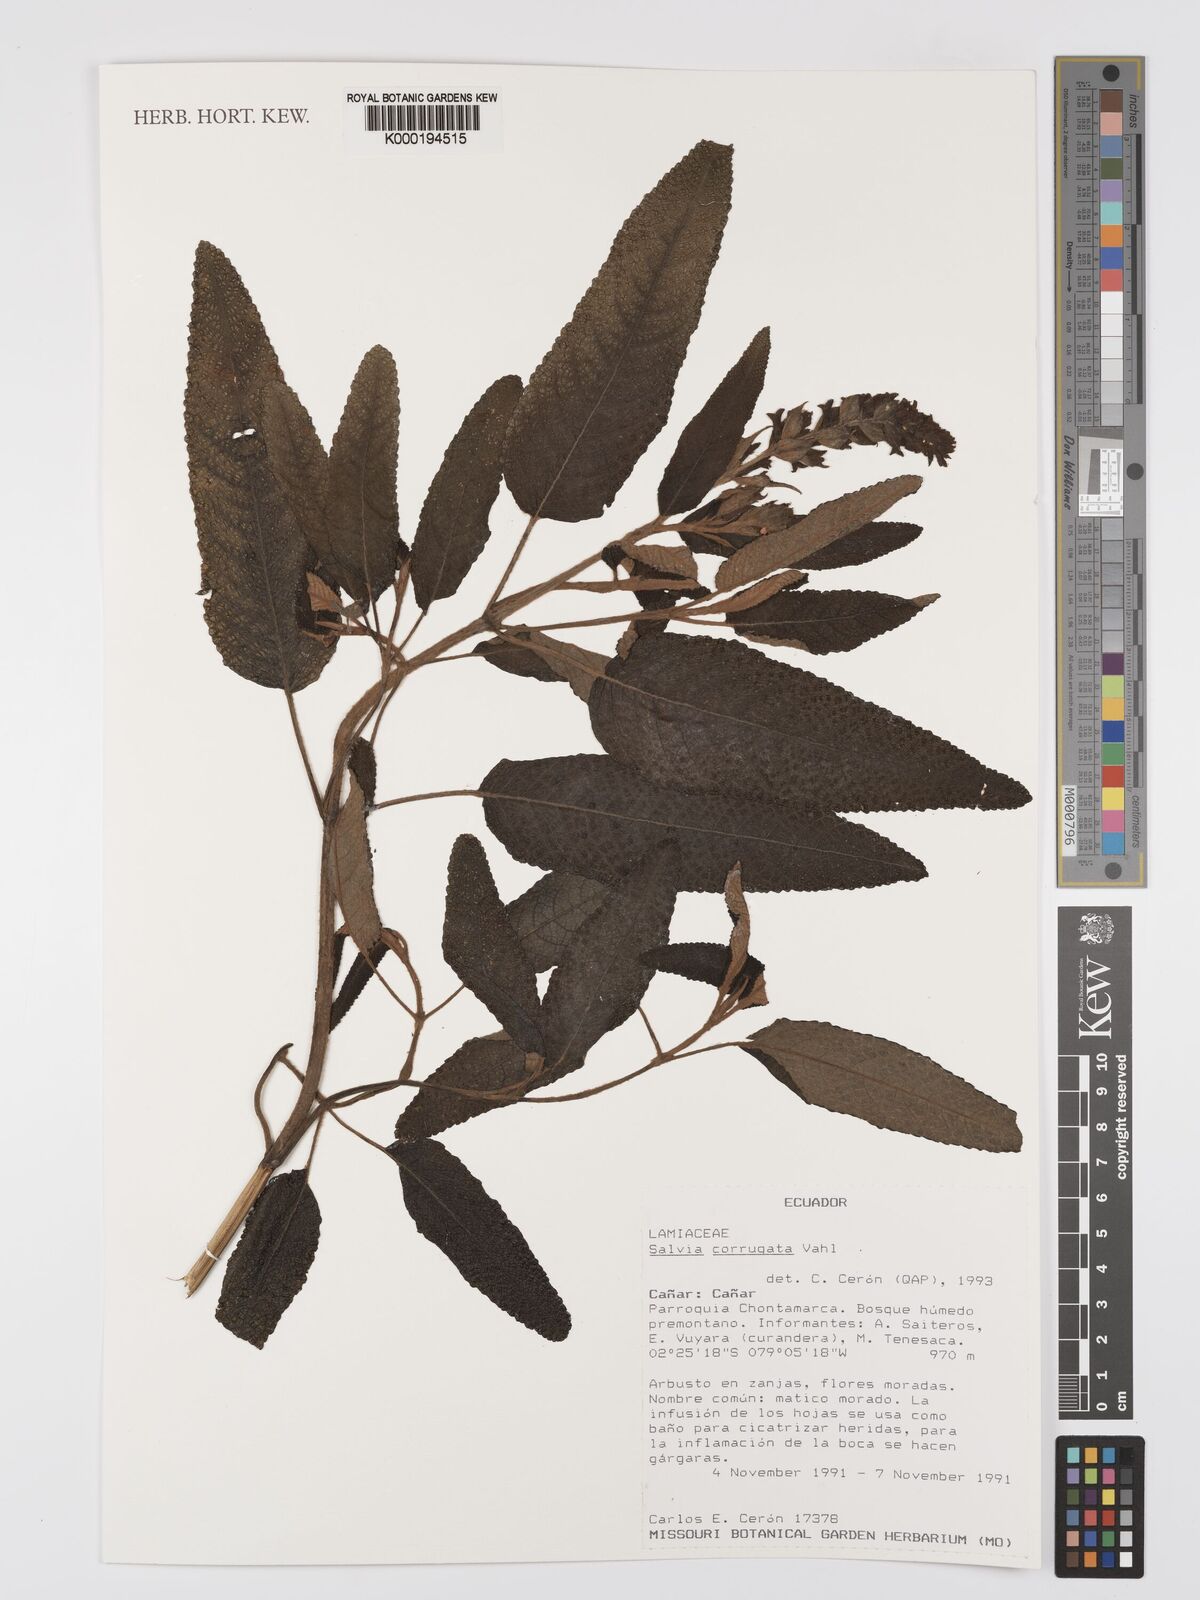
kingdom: Plantae
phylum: Tracheophyta
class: Magnoliopsida
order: Lamiales
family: Lamiaceae
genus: Salvia
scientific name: Salvia corrugata
